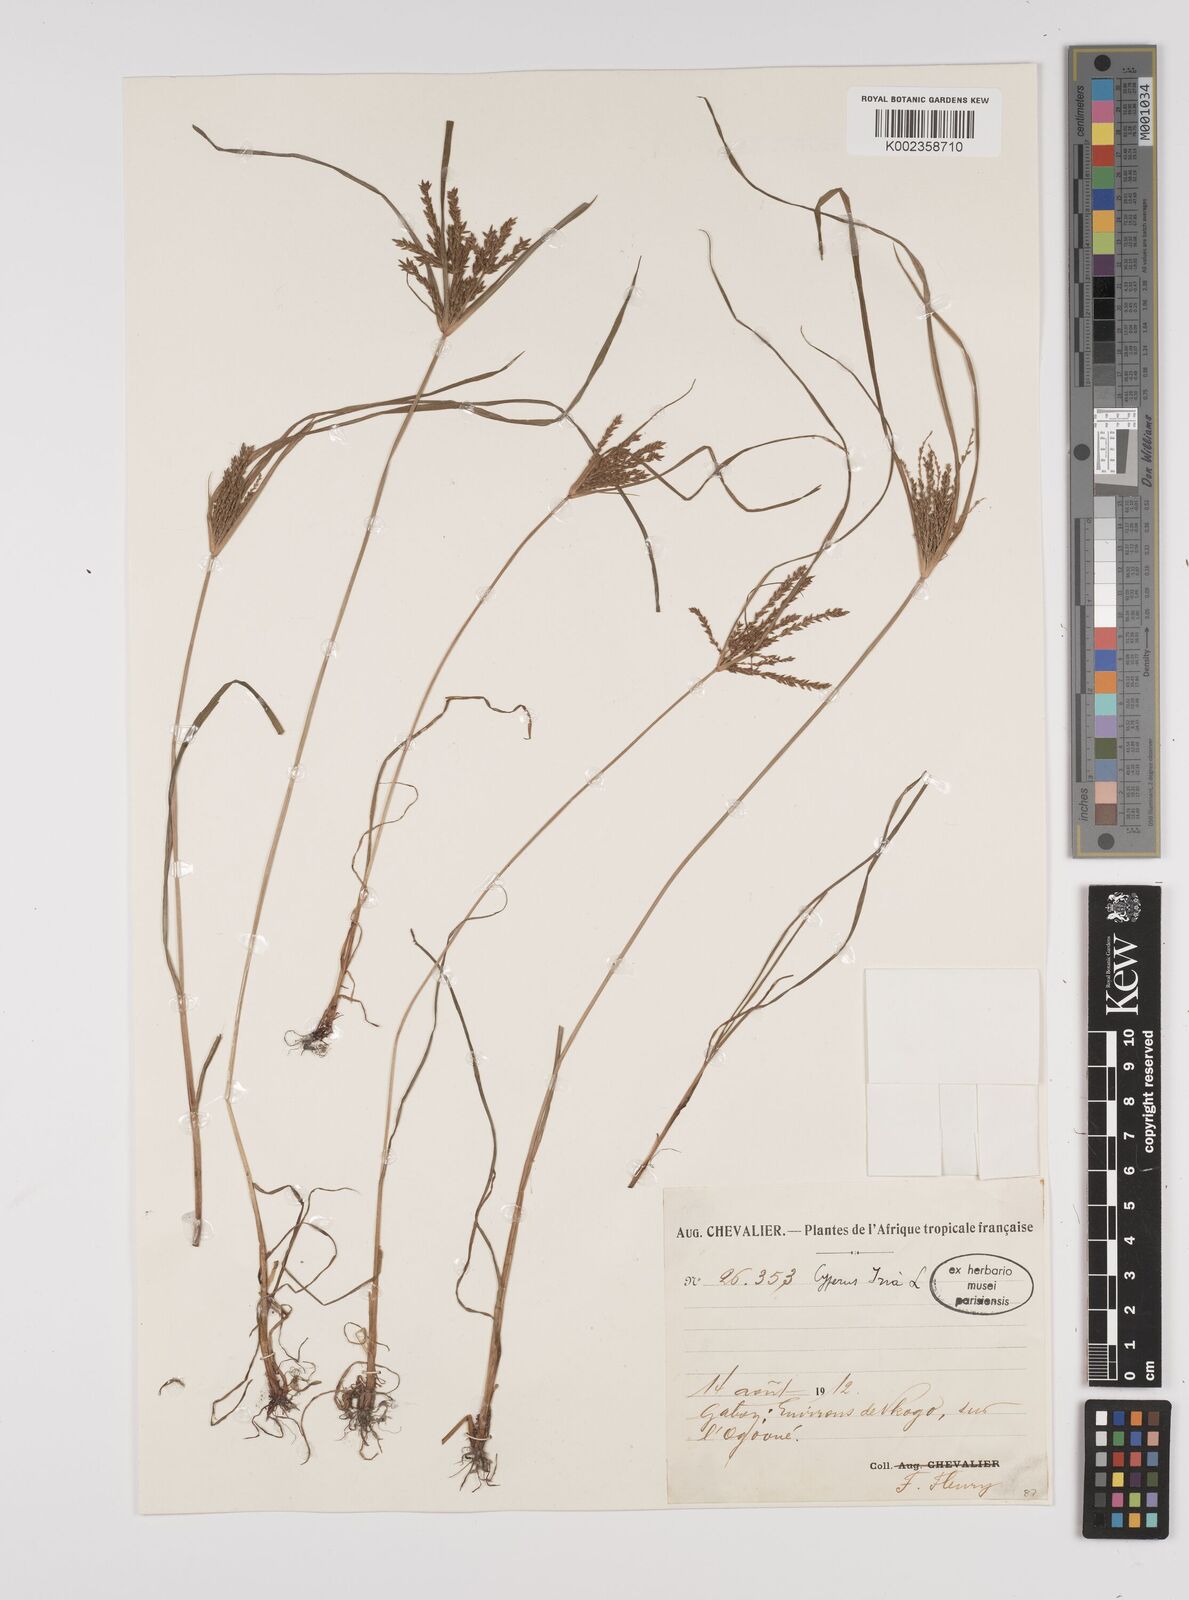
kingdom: Plantae
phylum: Tracheophyta
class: Liliopsida
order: Poales
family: Cyperaceae
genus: Cyperus
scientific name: Cyperus iria
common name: Ricefield flatsedge
